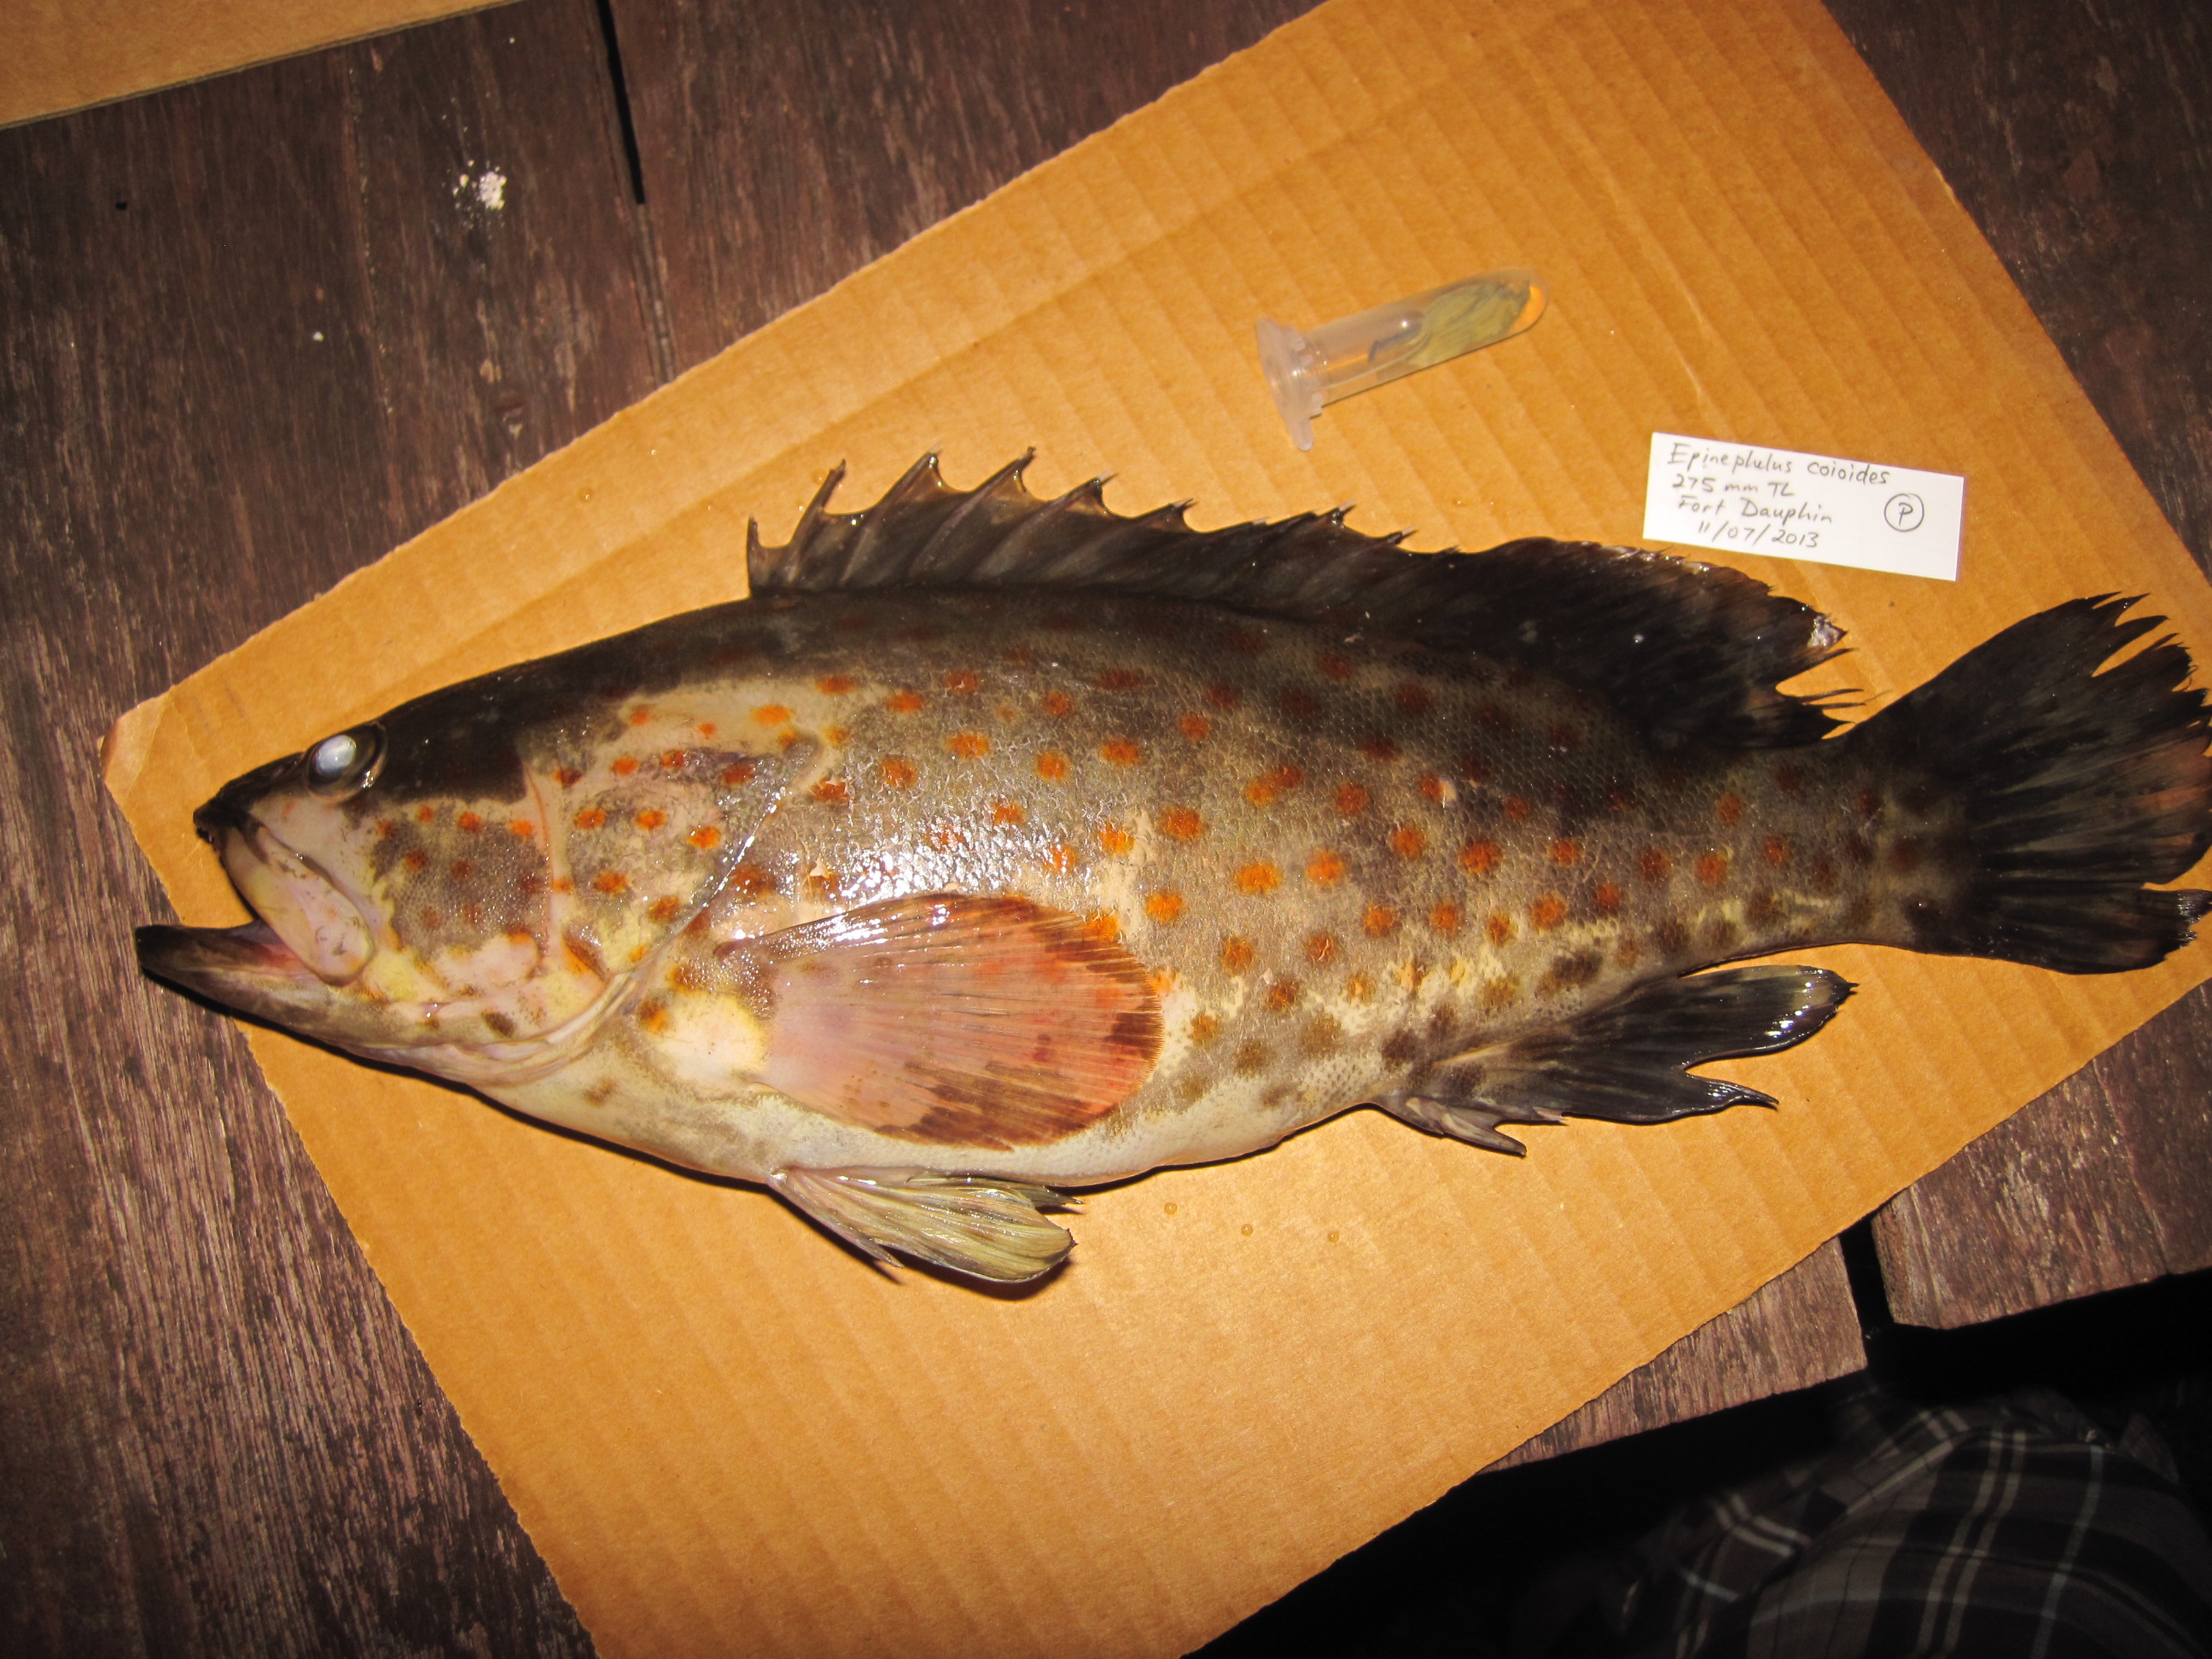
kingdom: Animalia
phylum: Chordata
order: Perciformes
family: Serranidae
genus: Epinephelus
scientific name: Epinephelus coioides
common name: Orange-spotted grouper
